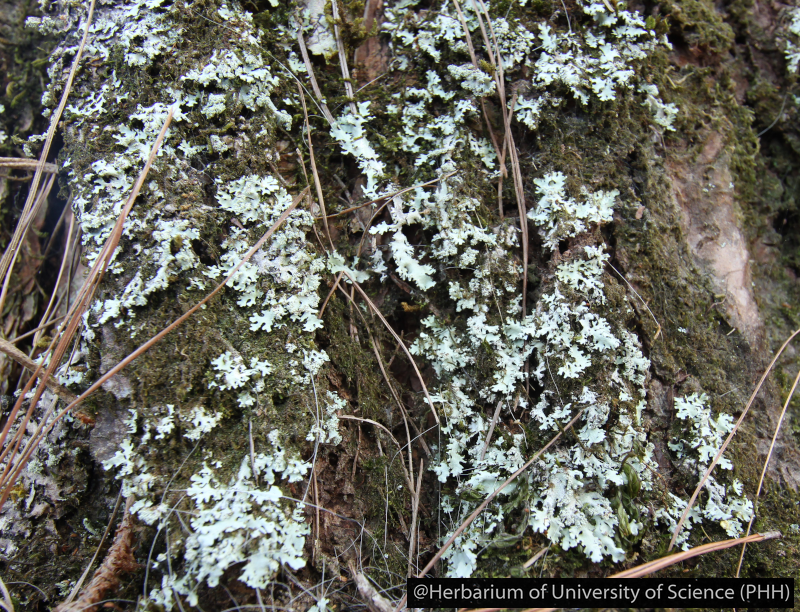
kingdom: Fungi
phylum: Ascomycota
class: Lecanoromycetes
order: Caliciales
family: Physciaceae
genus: Heterodermia
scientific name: Heterodermia
